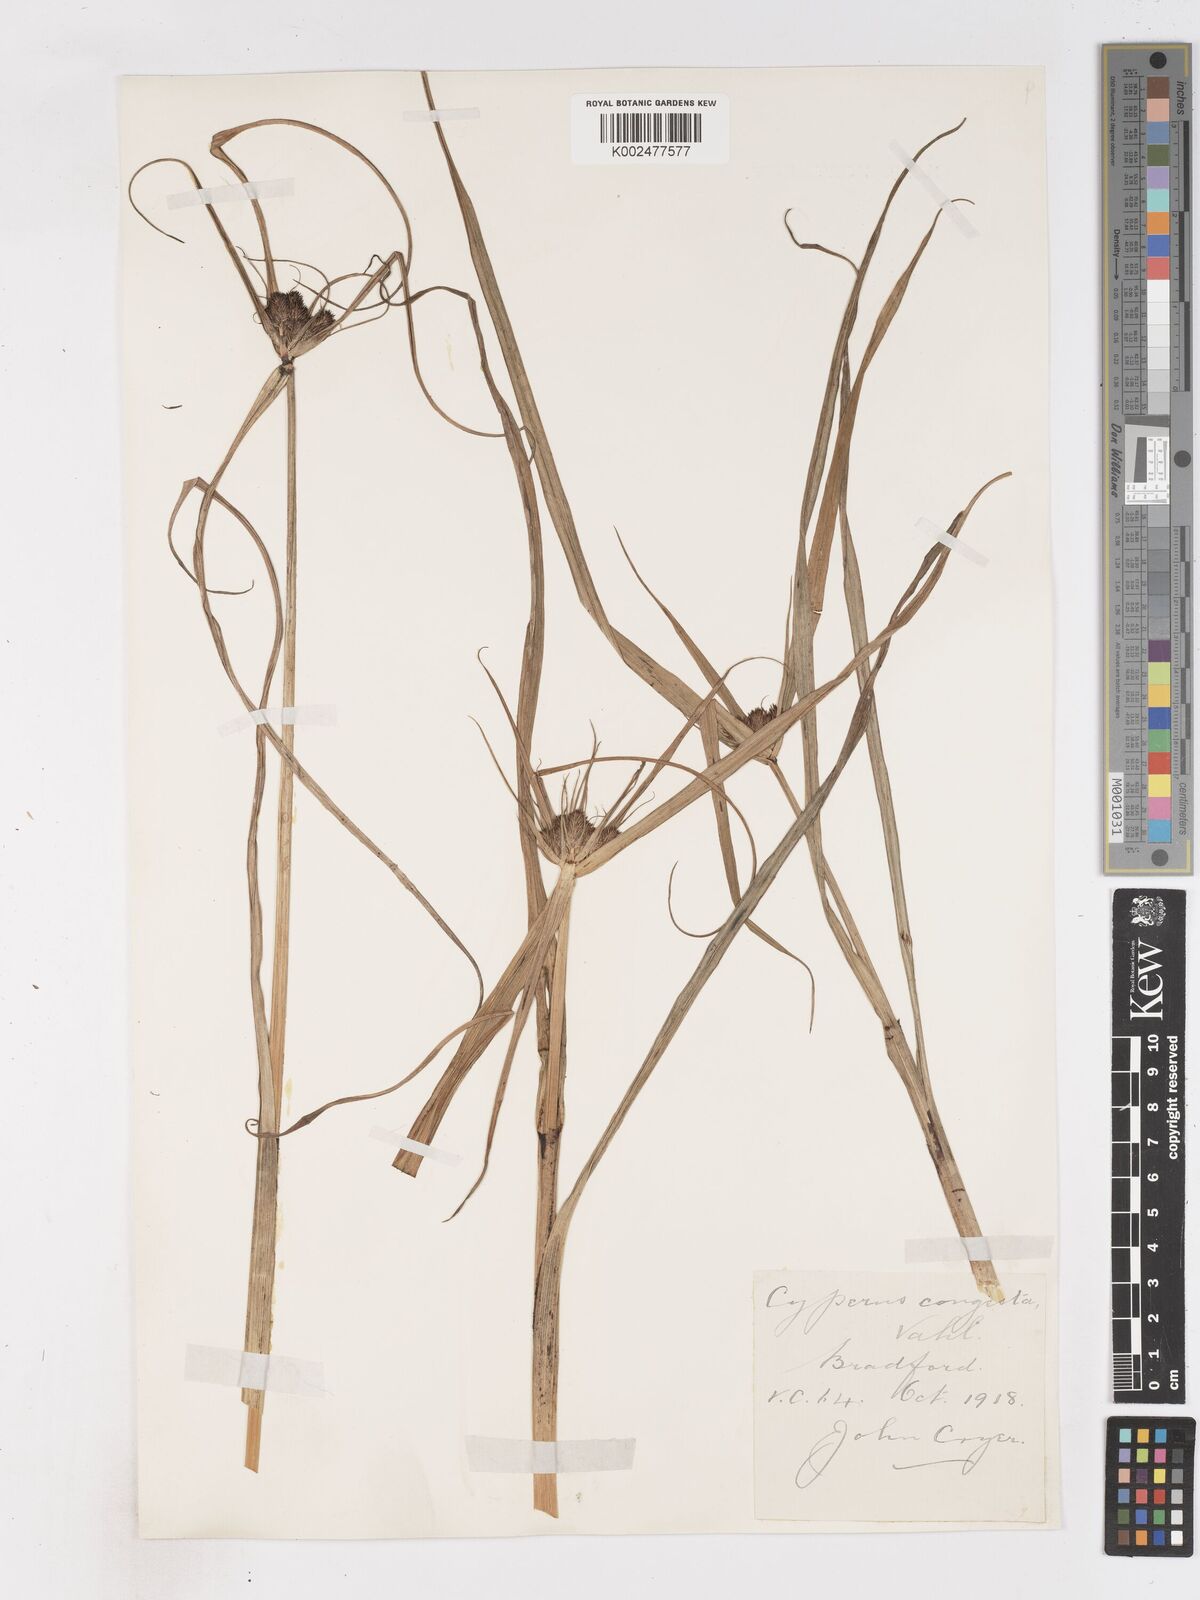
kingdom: Plantae
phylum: Tracheophyta
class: Liliopsida
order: Poales
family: Cyperaceae
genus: Cyperus
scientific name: Cyperus congestus
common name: Dense flat sedge
